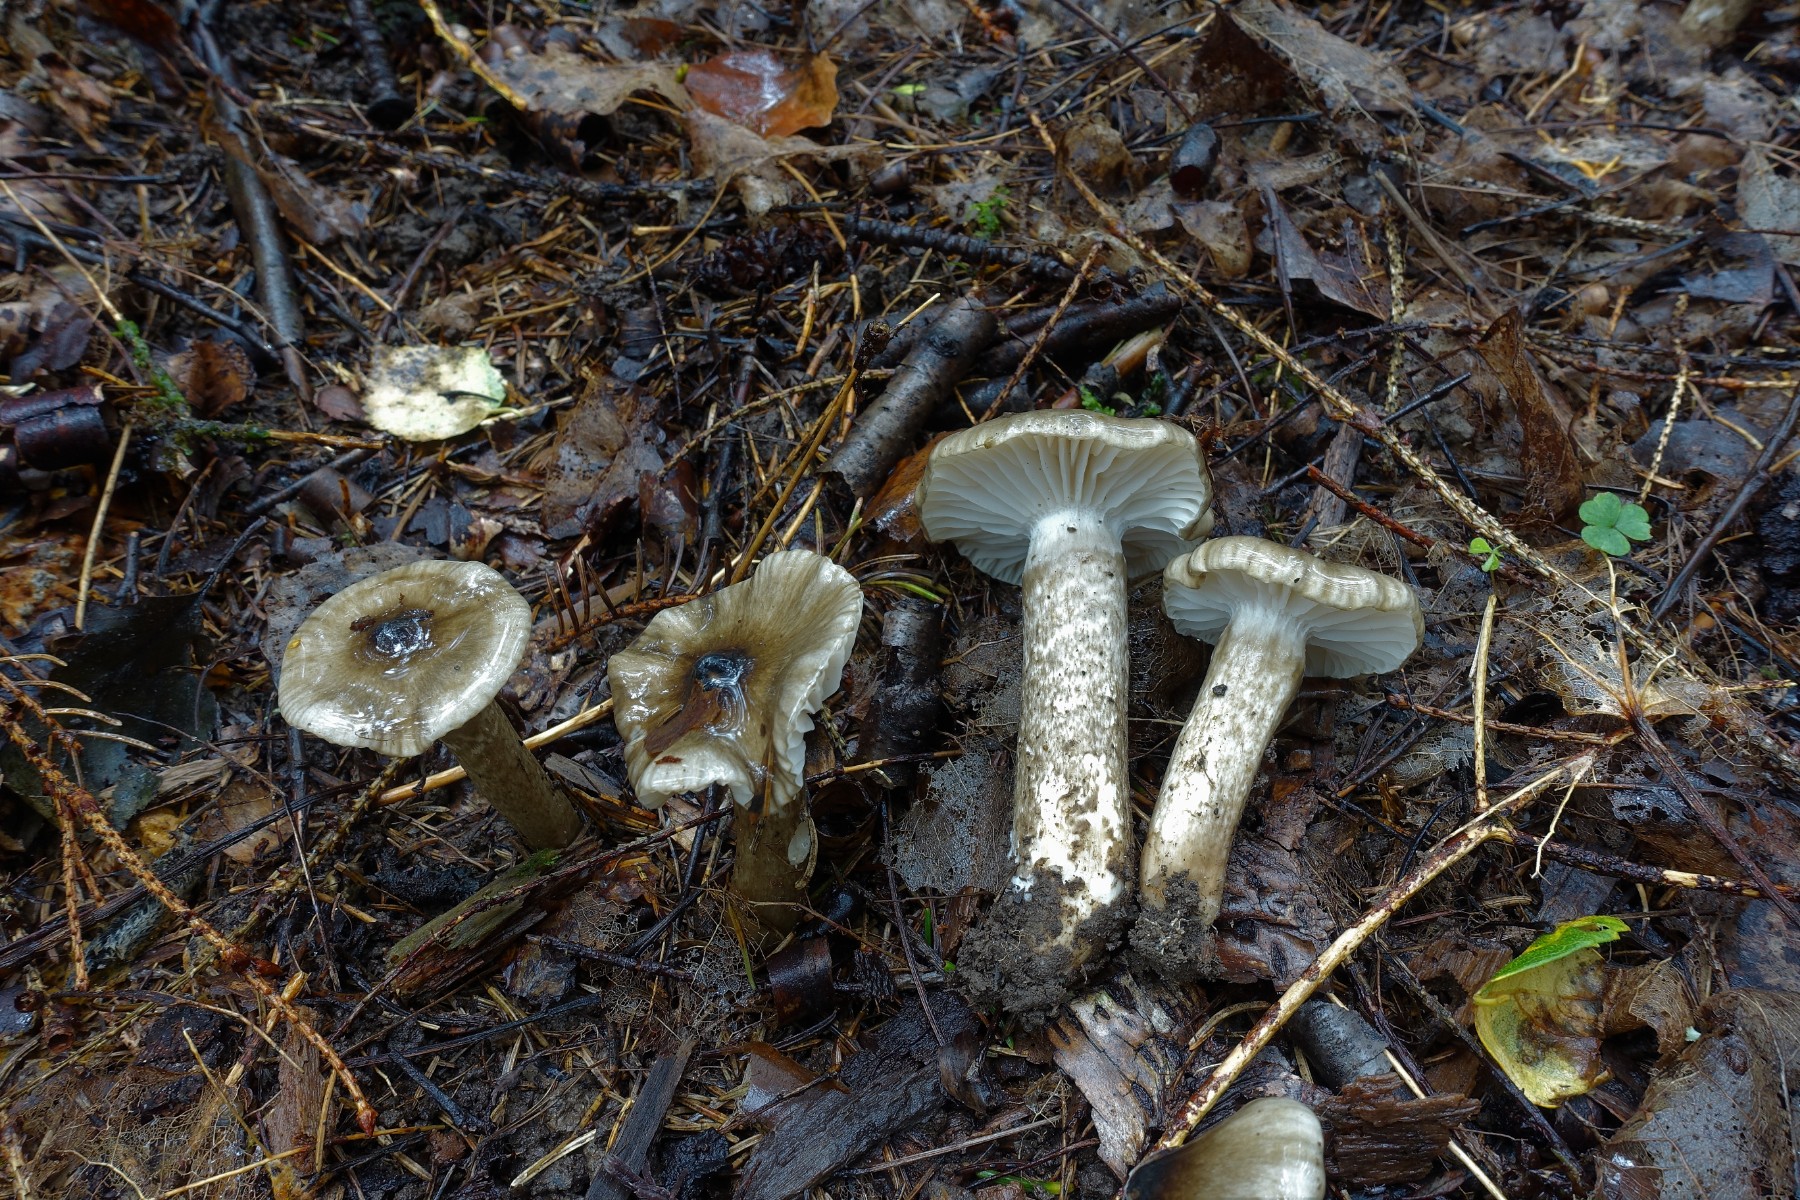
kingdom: Fungi
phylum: Basidiomycota
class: Agaricomycetes
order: Agaricales
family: Hygrophoraceae
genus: Hygrophorus
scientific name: Hygrophorus korhonenii
